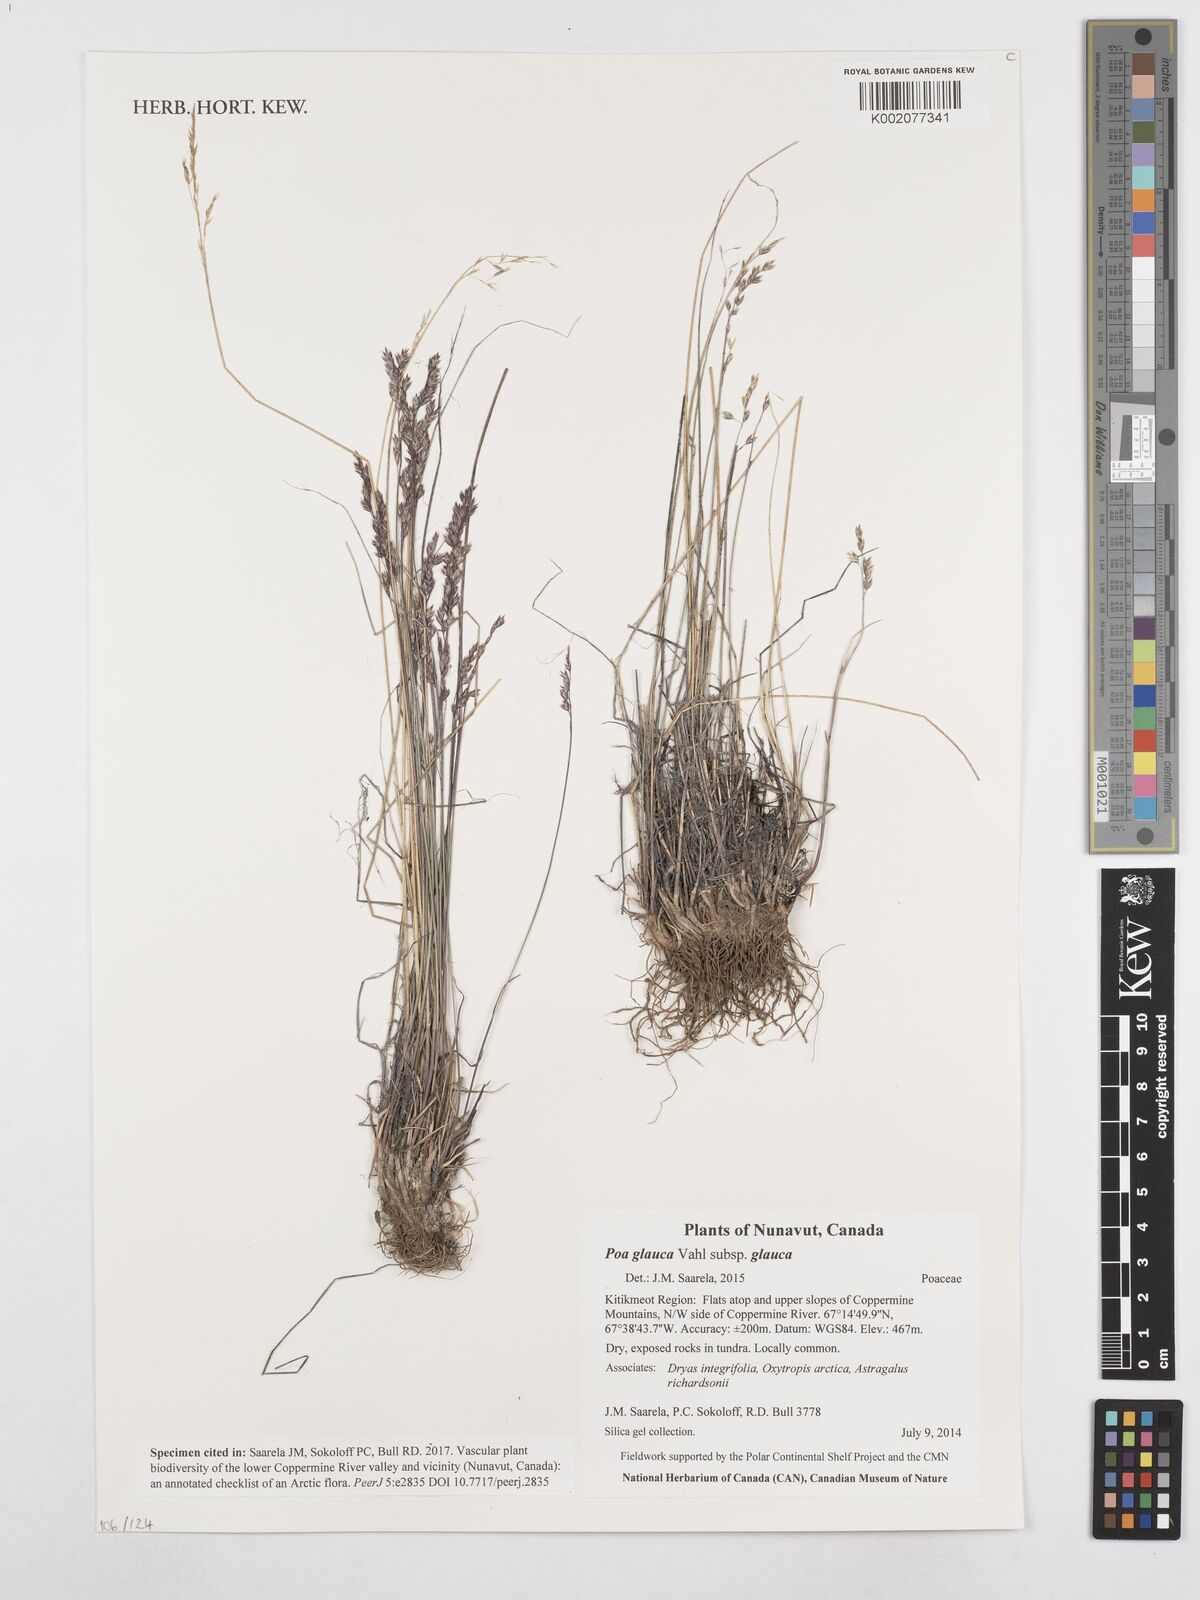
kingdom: Plantae
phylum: Tracheophyta
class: Liliopsida
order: Poales
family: Poaceae
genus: Poa
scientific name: Poa glauca
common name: Glaucous bluegrass
